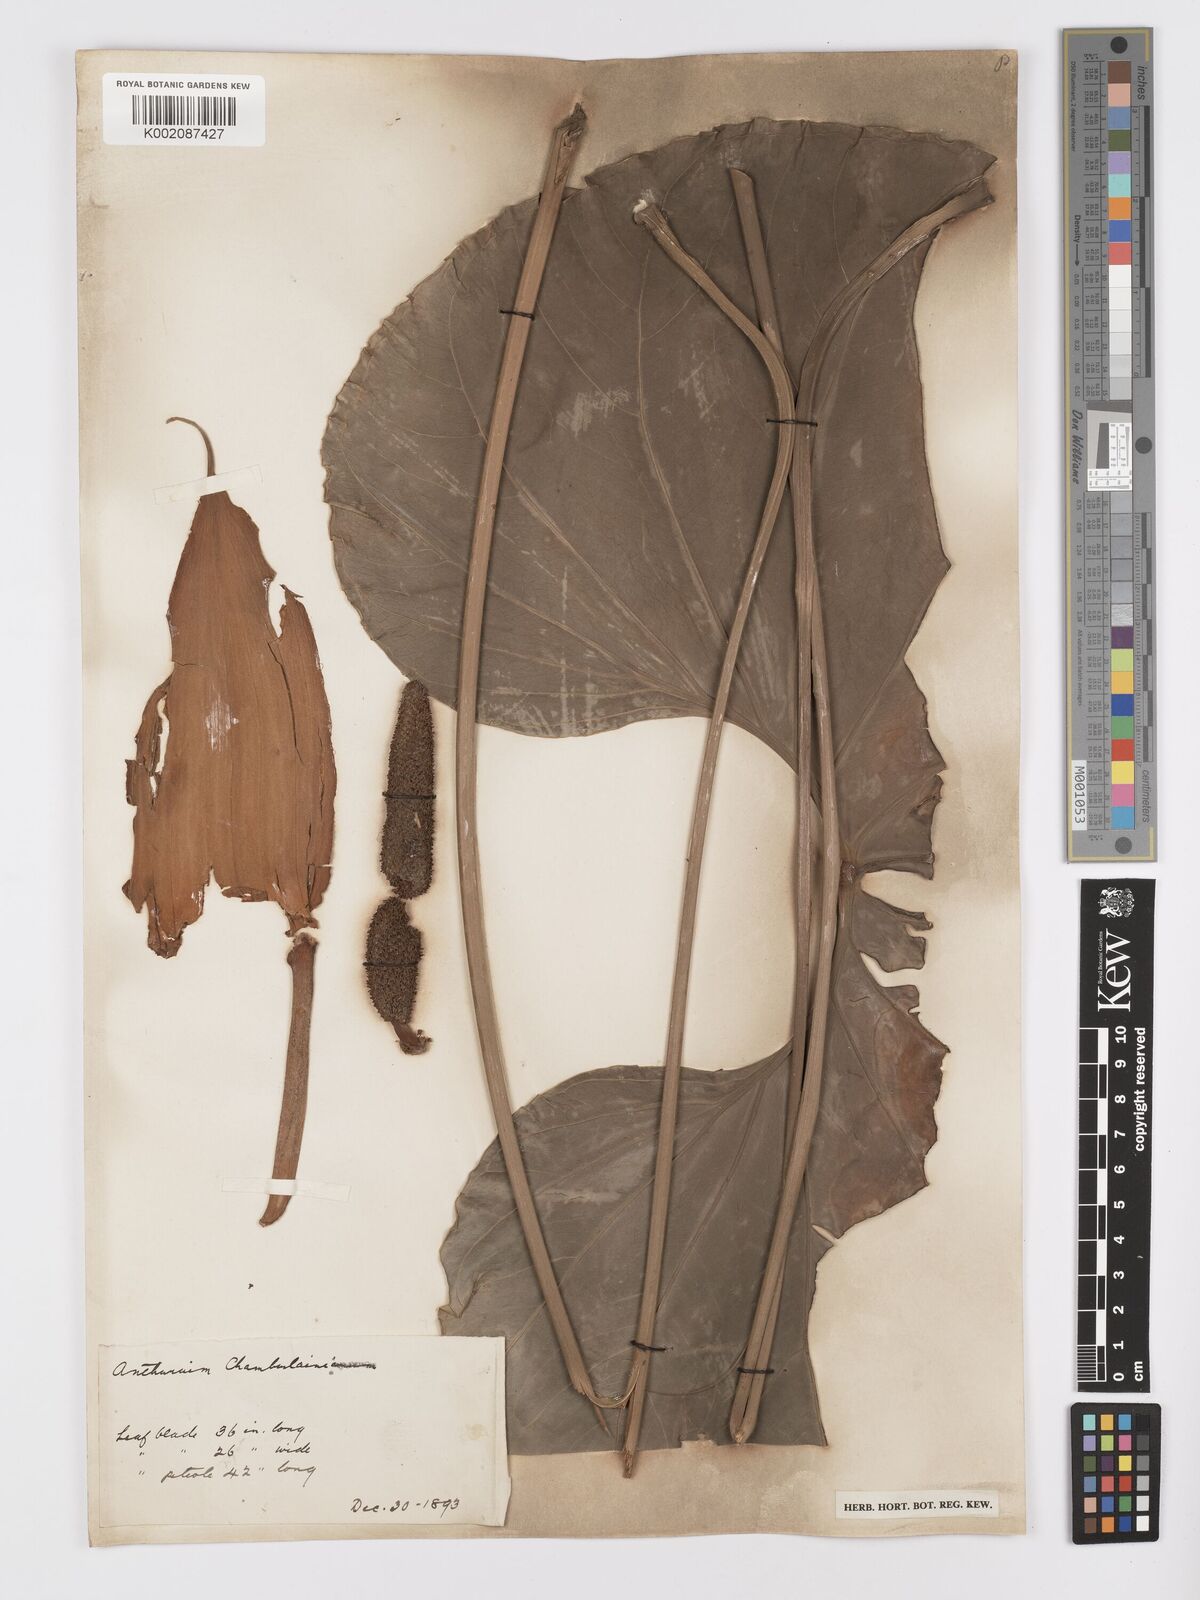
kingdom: Plantae
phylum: Tracheophyta
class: Liliopsida
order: Alismatales
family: Araceae
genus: Anthurium
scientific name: Anthurium chamberlainii
